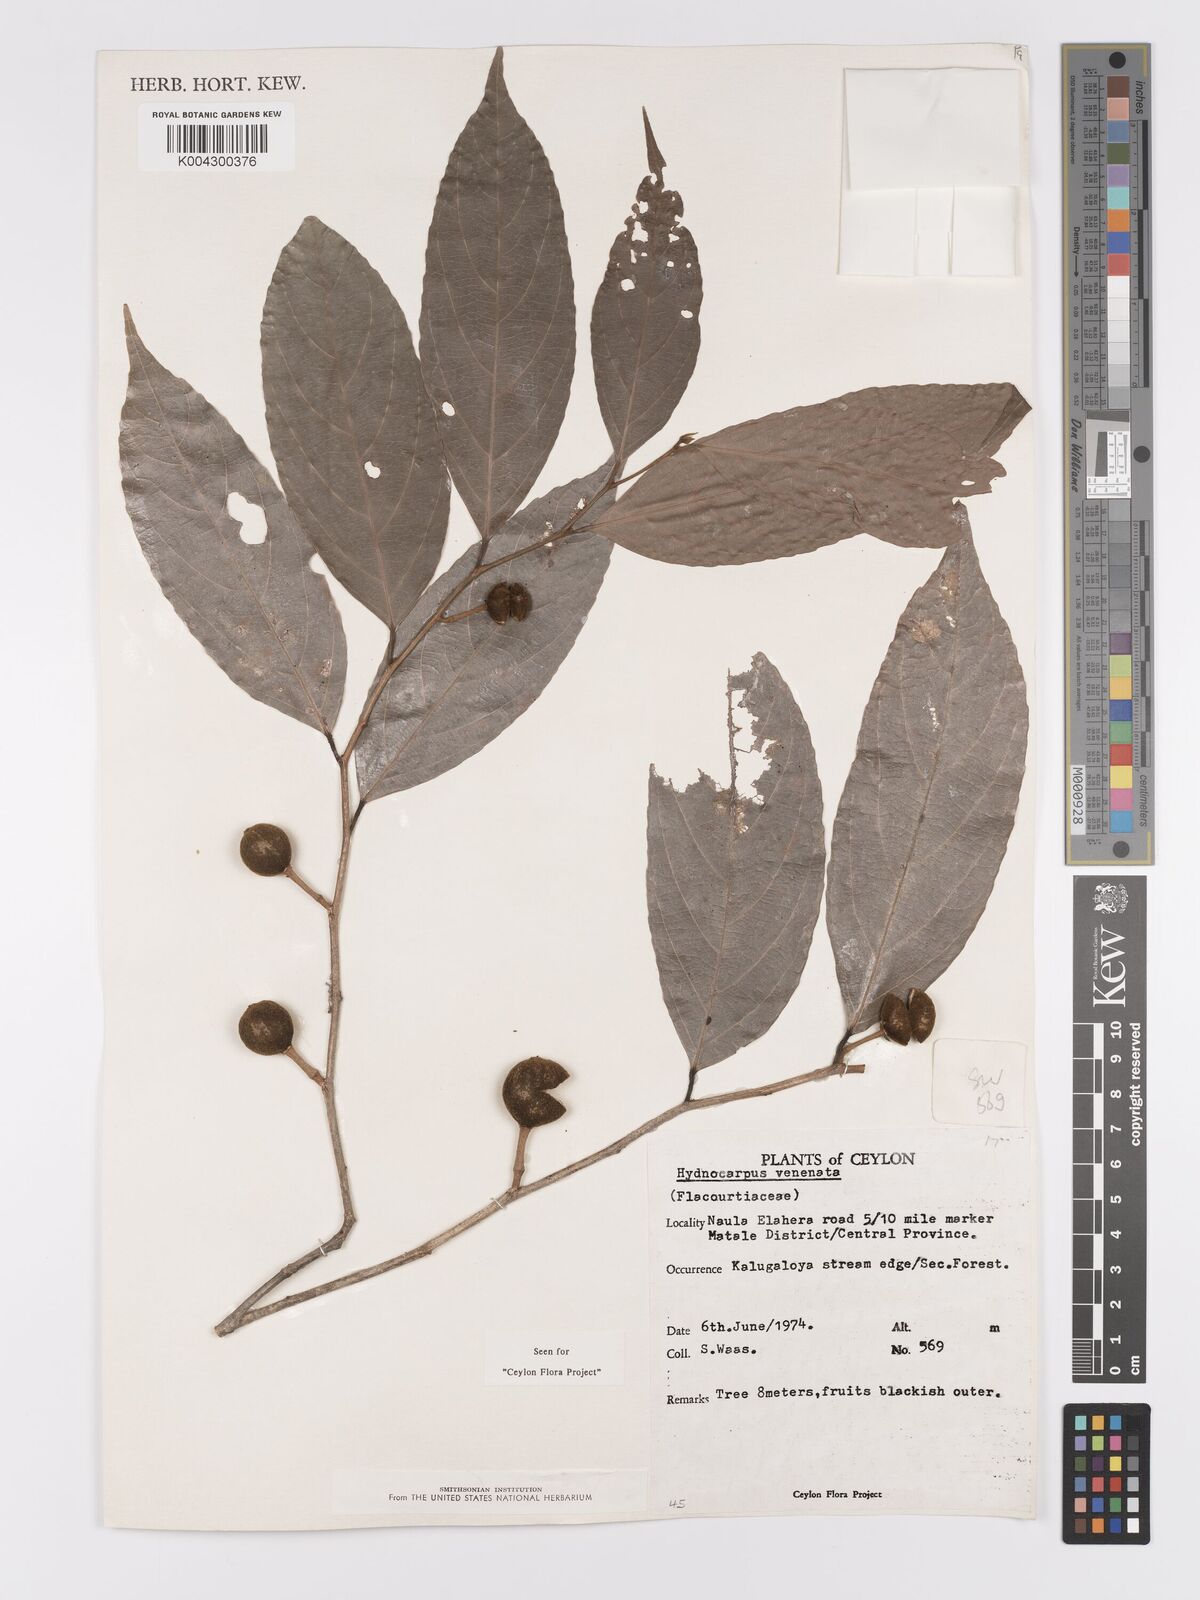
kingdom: Plantae
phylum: Tracheophyta
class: Magnoliopsida
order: Malpighiales
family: Achariaceae
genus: Hydnocarpus
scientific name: Hydnocarpus venenatus
